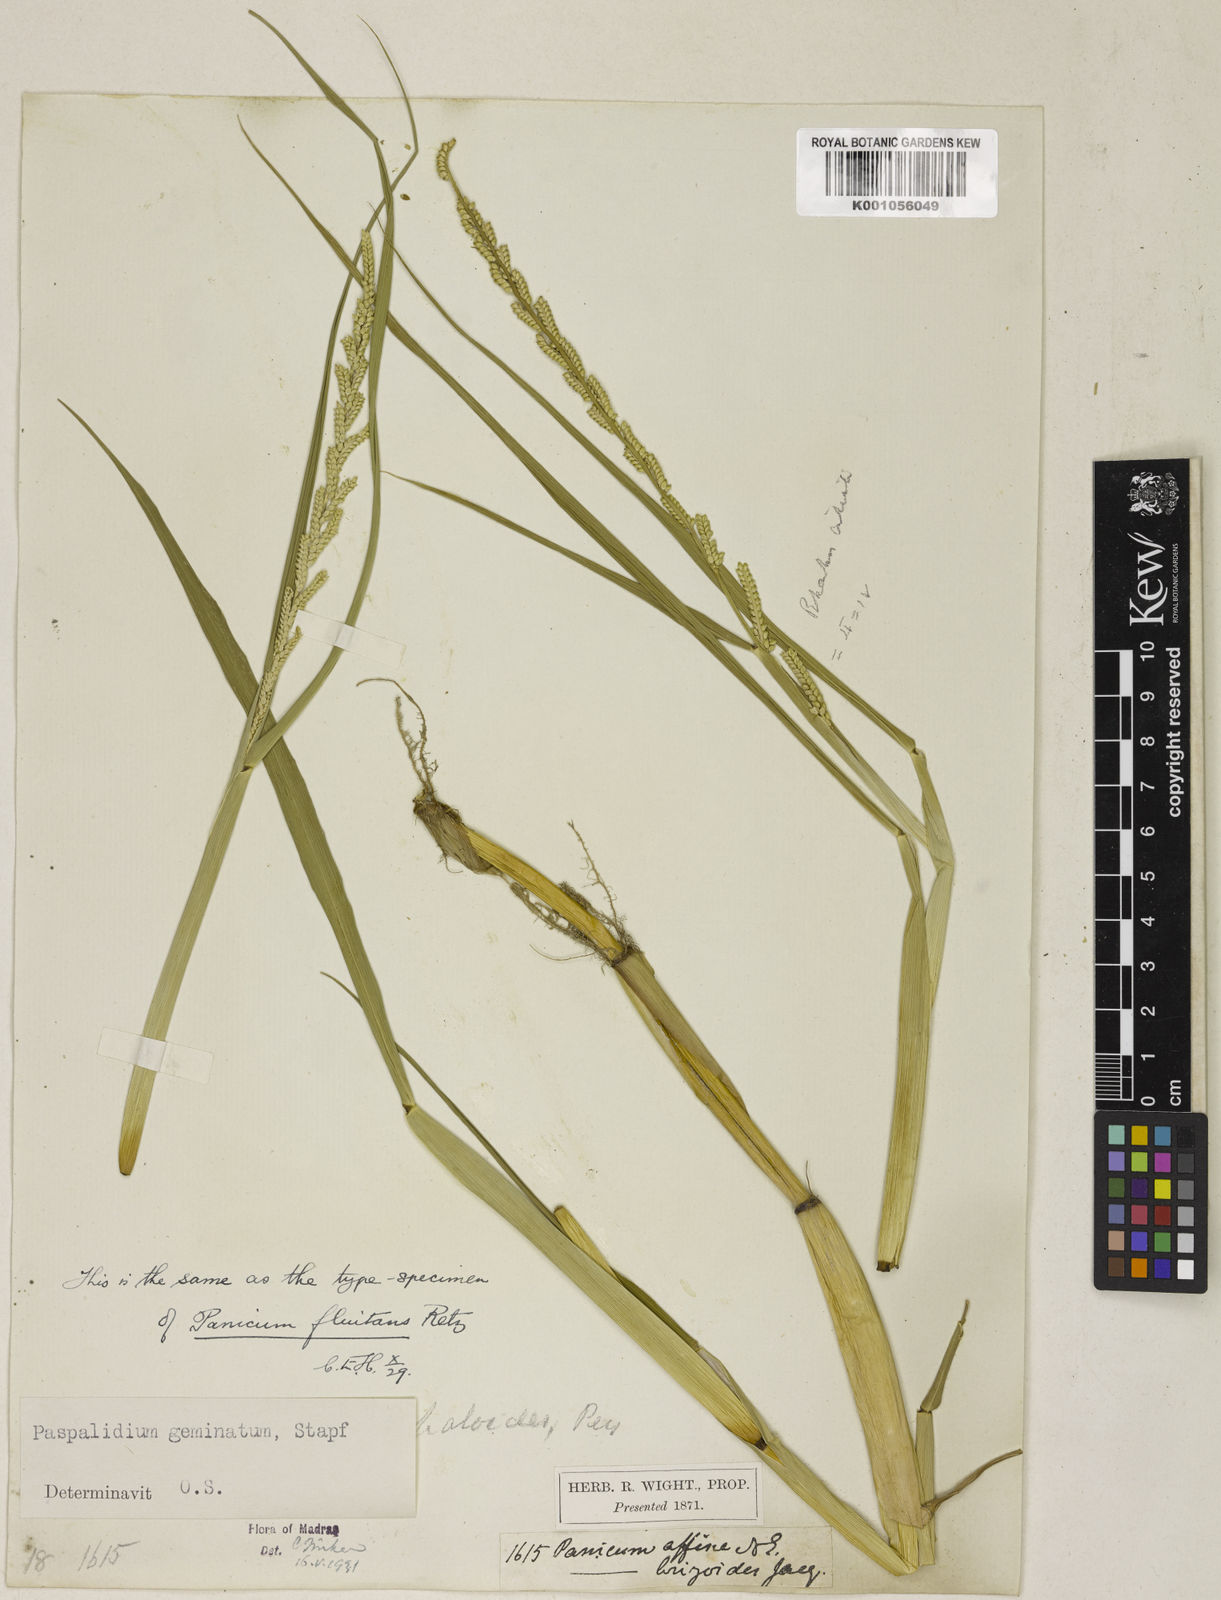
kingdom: Plantae
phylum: Tracheophyta
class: Liliopsida
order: Poales
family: Poaceae
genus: Setaria
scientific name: Setaria geminata
